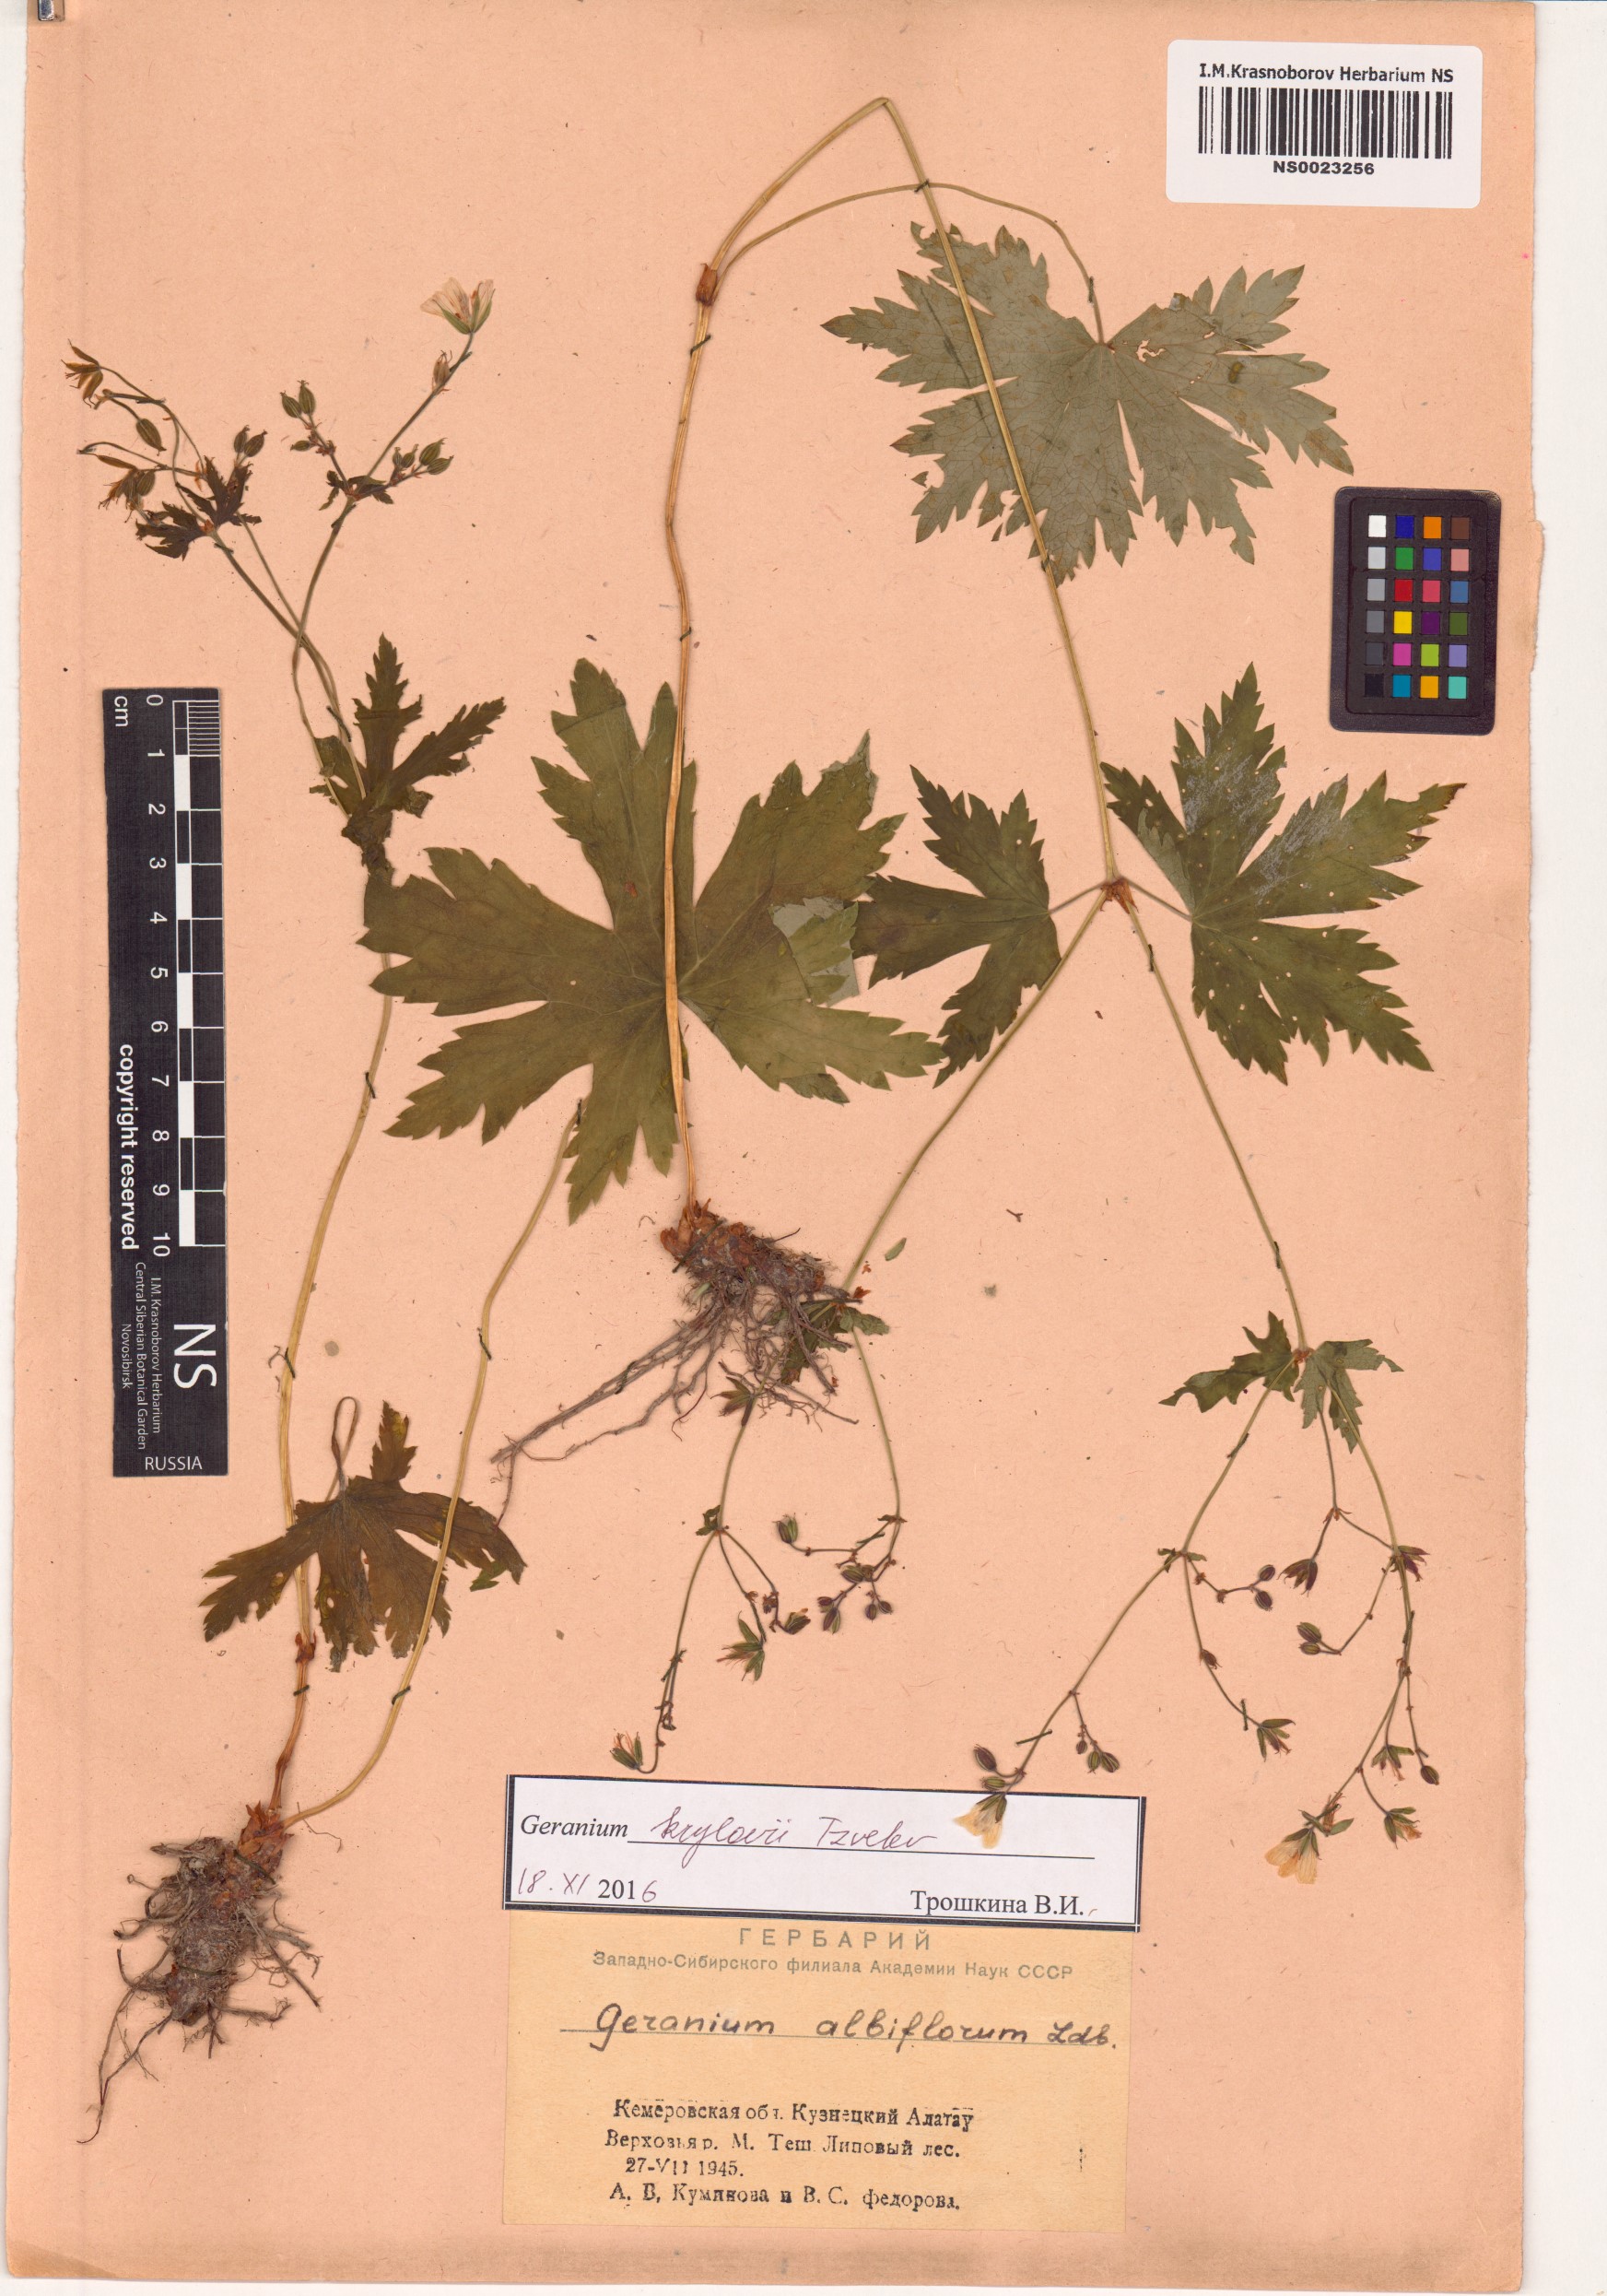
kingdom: Plantae
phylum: Tracheophyta
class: Magnoliopsida
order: Geraniales
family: Geraniaceae
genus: Geranium
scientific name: Geranium sylvaticum
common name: Wood crane's-bill
